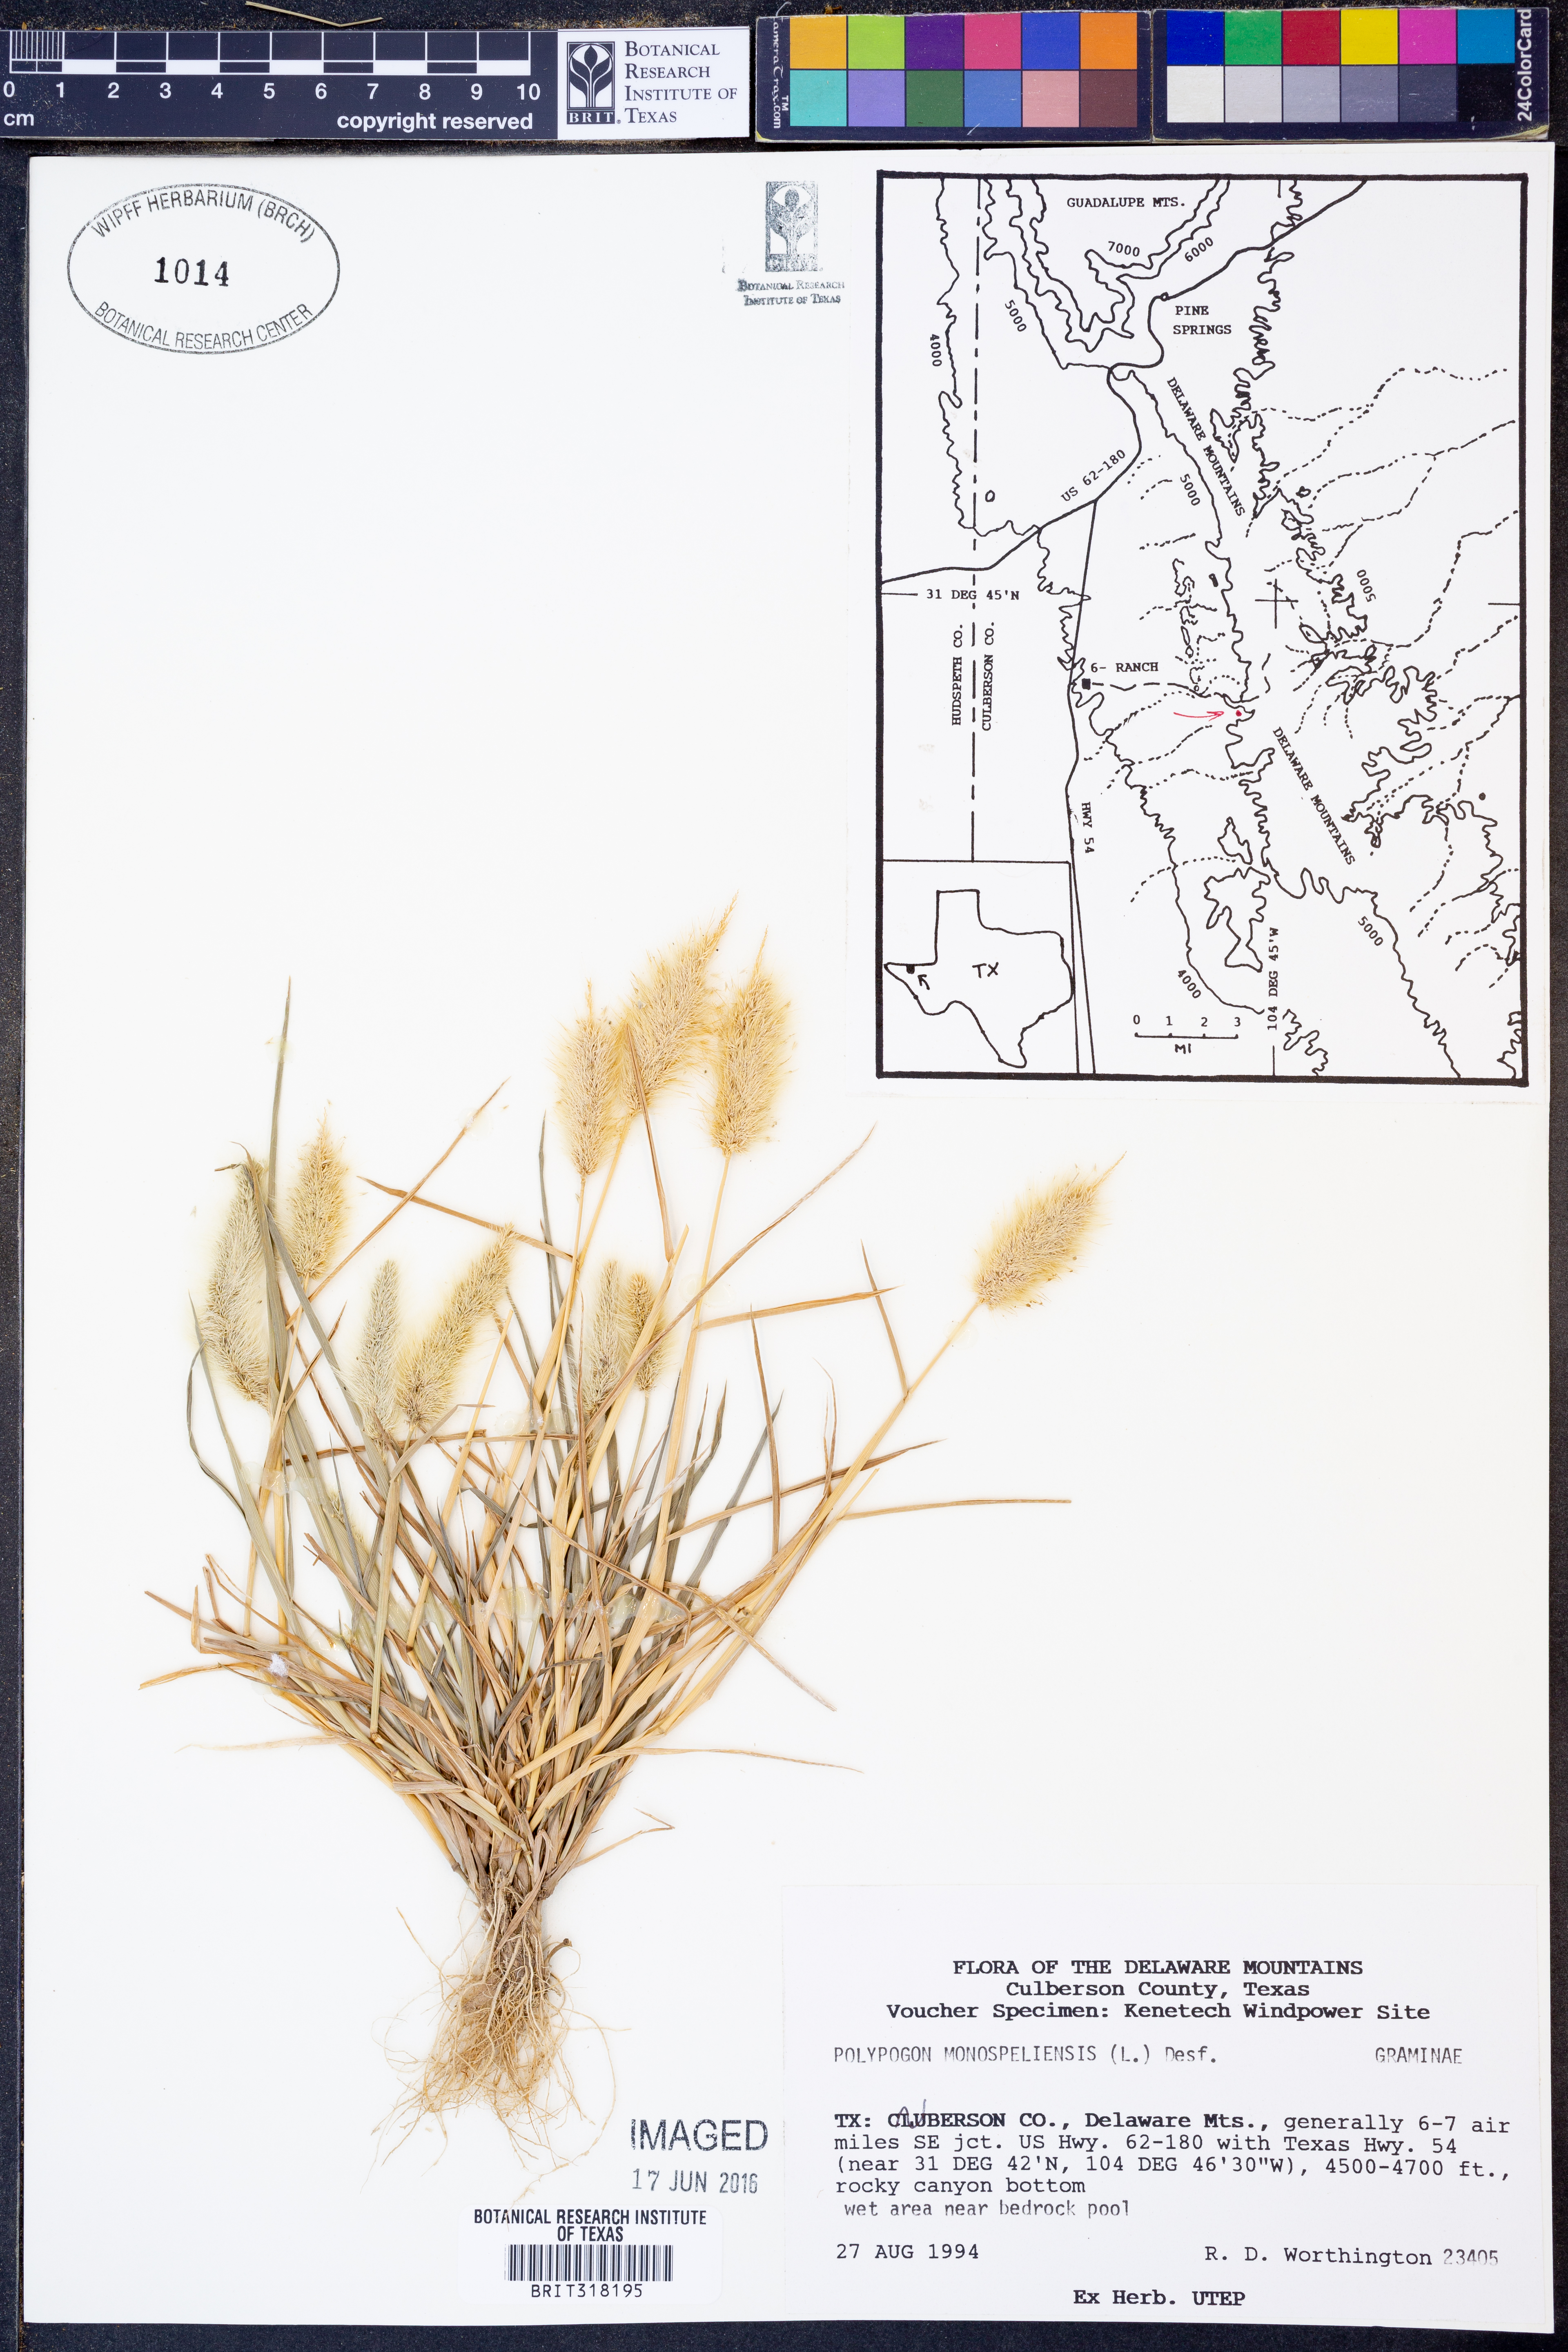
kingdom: Plantae
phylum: Tracheophyta
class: Liliopsida
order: Poales
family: Poaceae
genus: Polypogon
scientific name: Polypogon monspeliensis
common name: Annual rabbitsfoot grass
